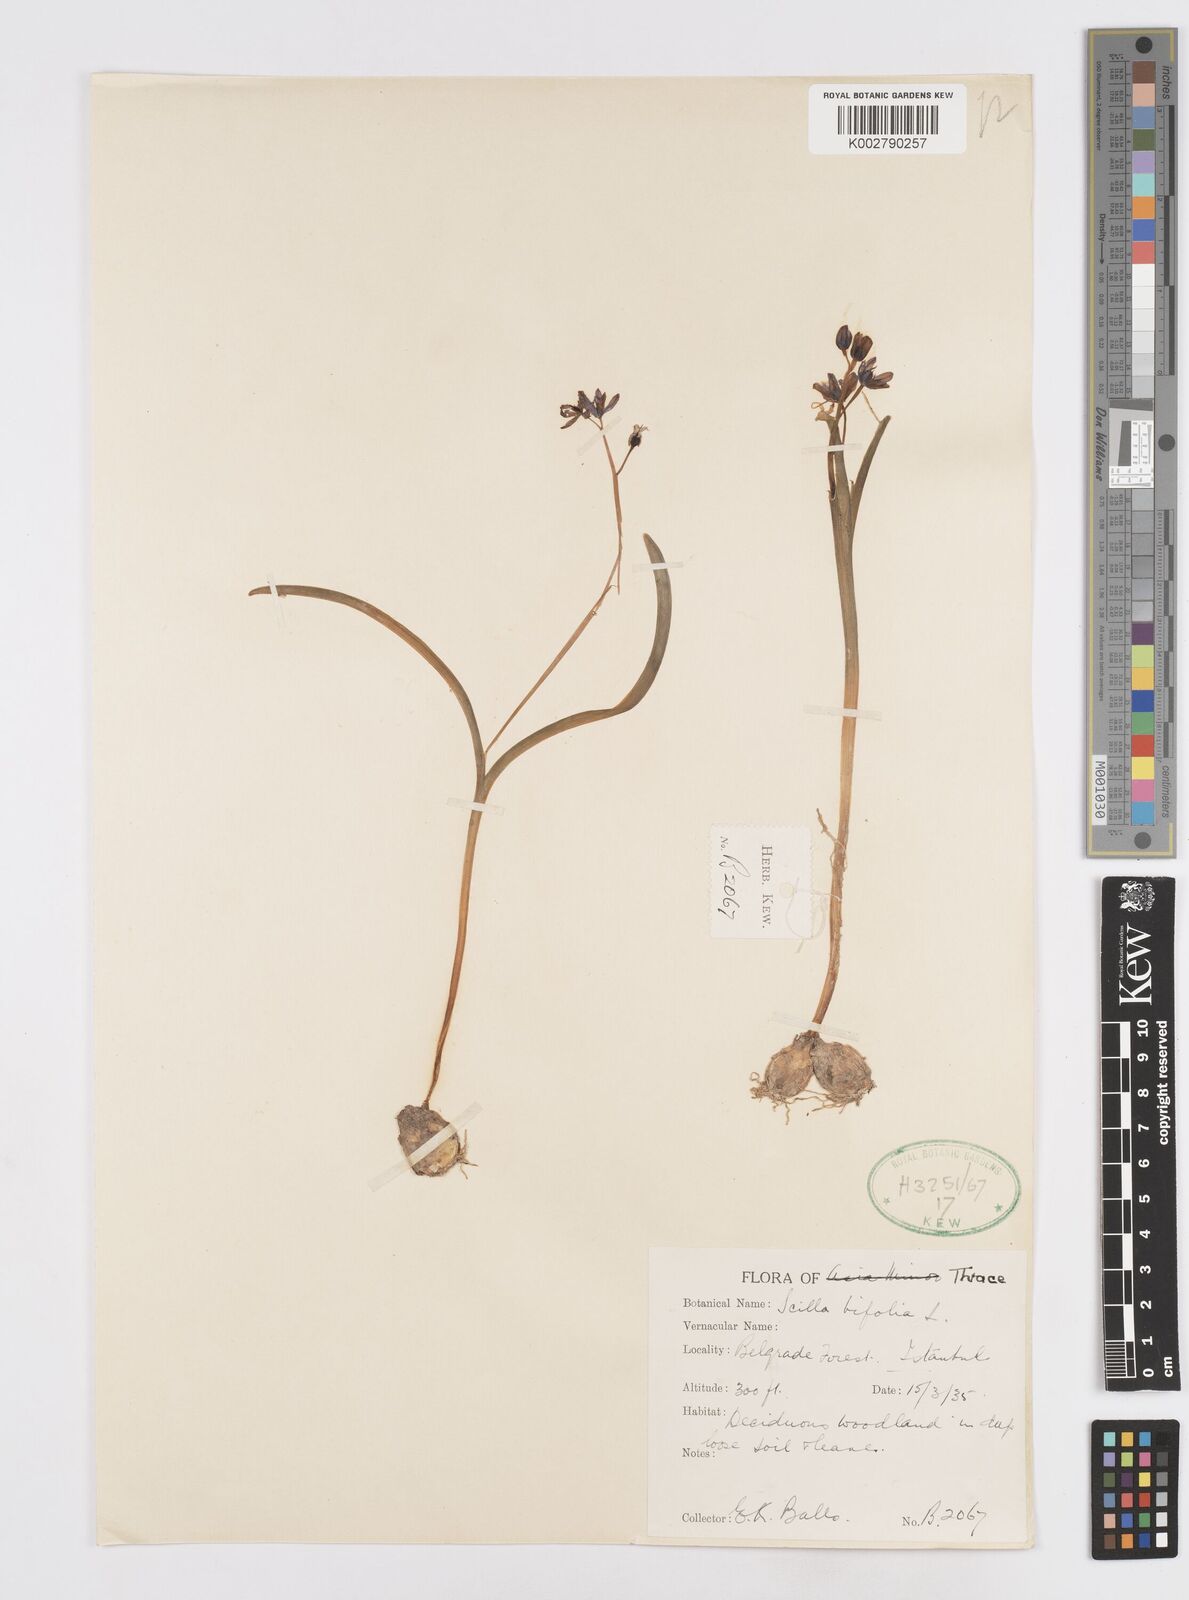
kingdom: Plantae
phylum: Tracheophyta
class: Liliopsida
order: Asparagales
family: Asparagaceae
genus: Scilla
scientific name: Scilla bifolia
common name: Alpine squill
